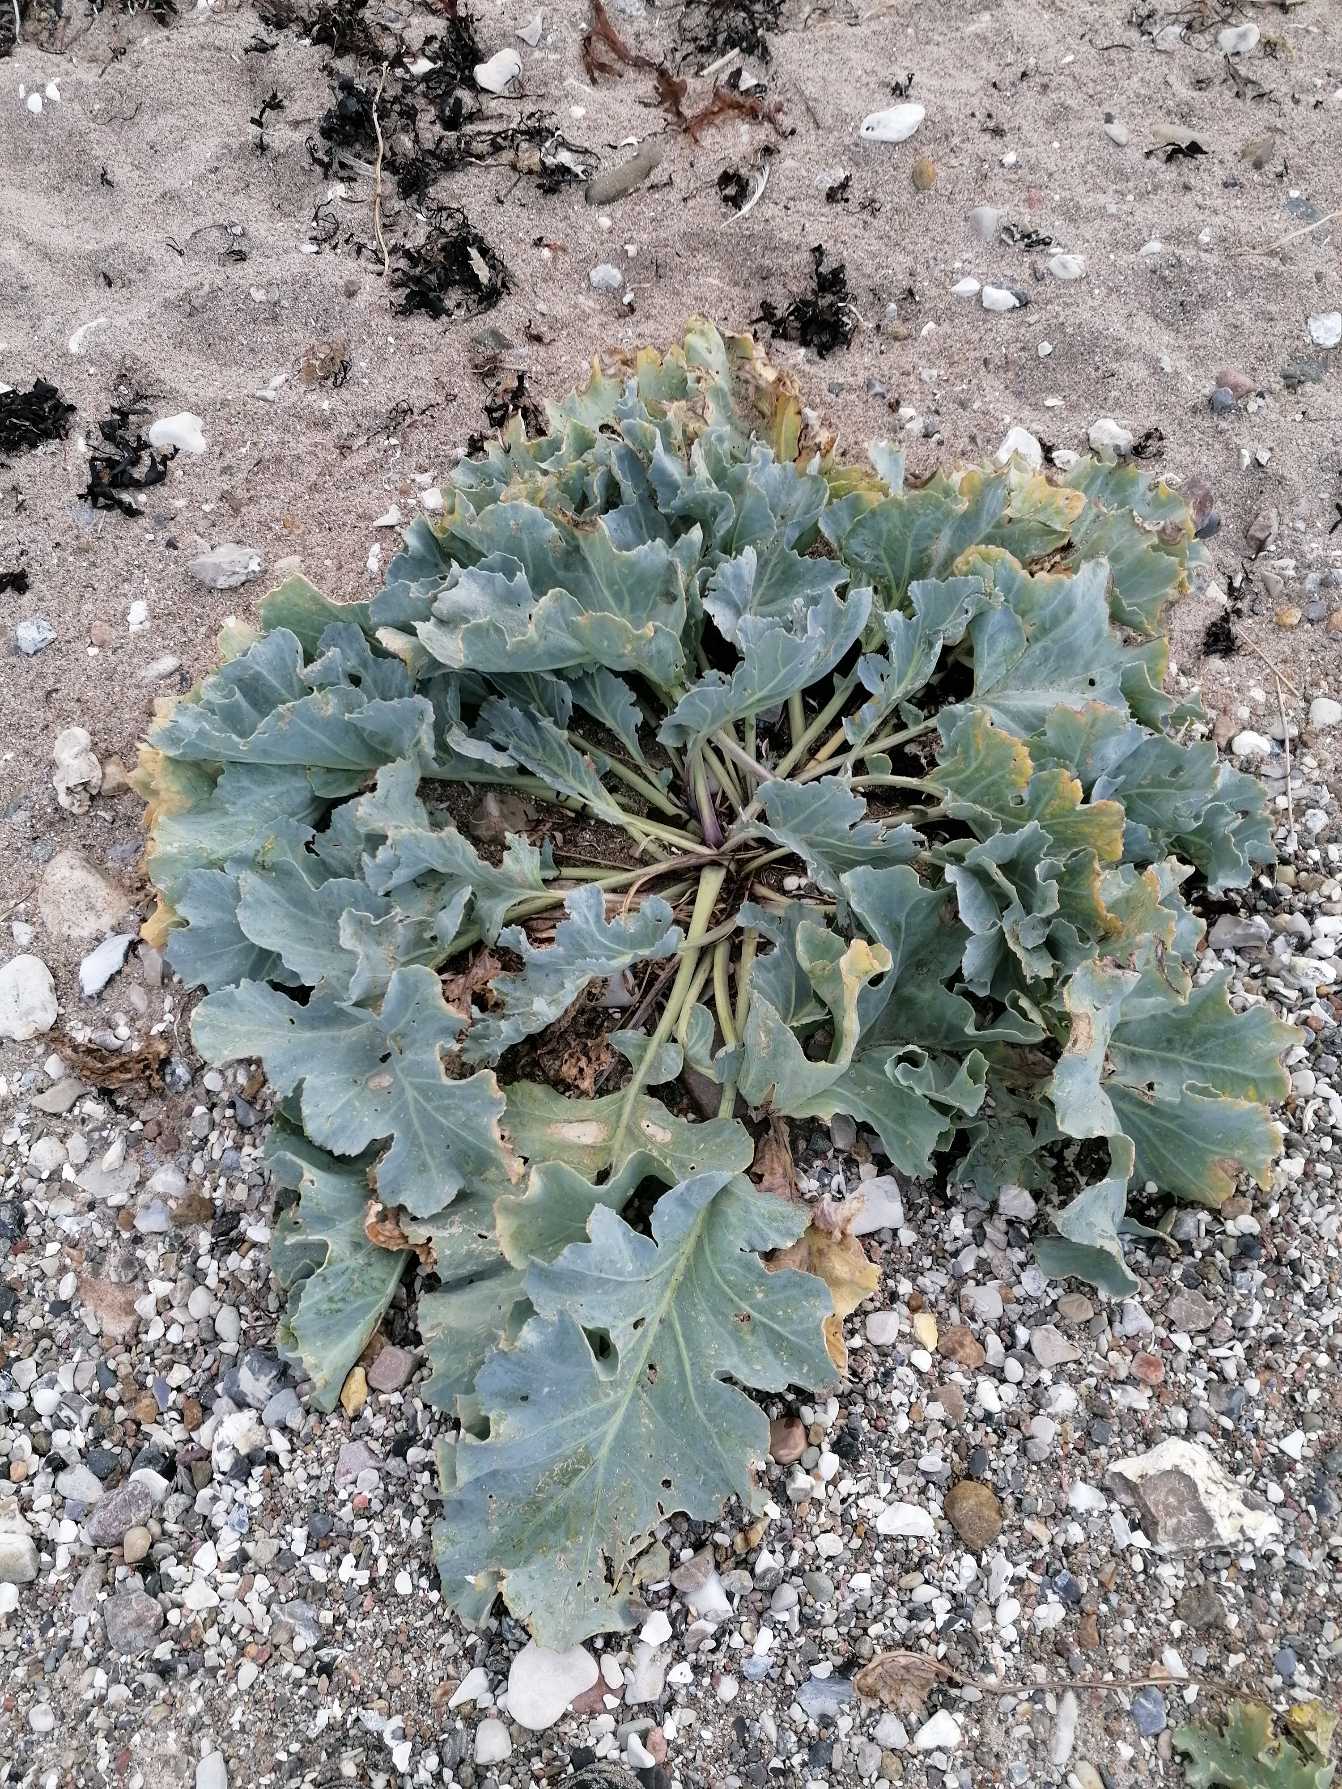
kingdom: Plantae
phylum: Tracheophyta
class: Magnoliopsida
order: Brassicales
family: Brassicaceae
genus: Crambe
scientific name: Crambe maritima
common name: Strandkål
